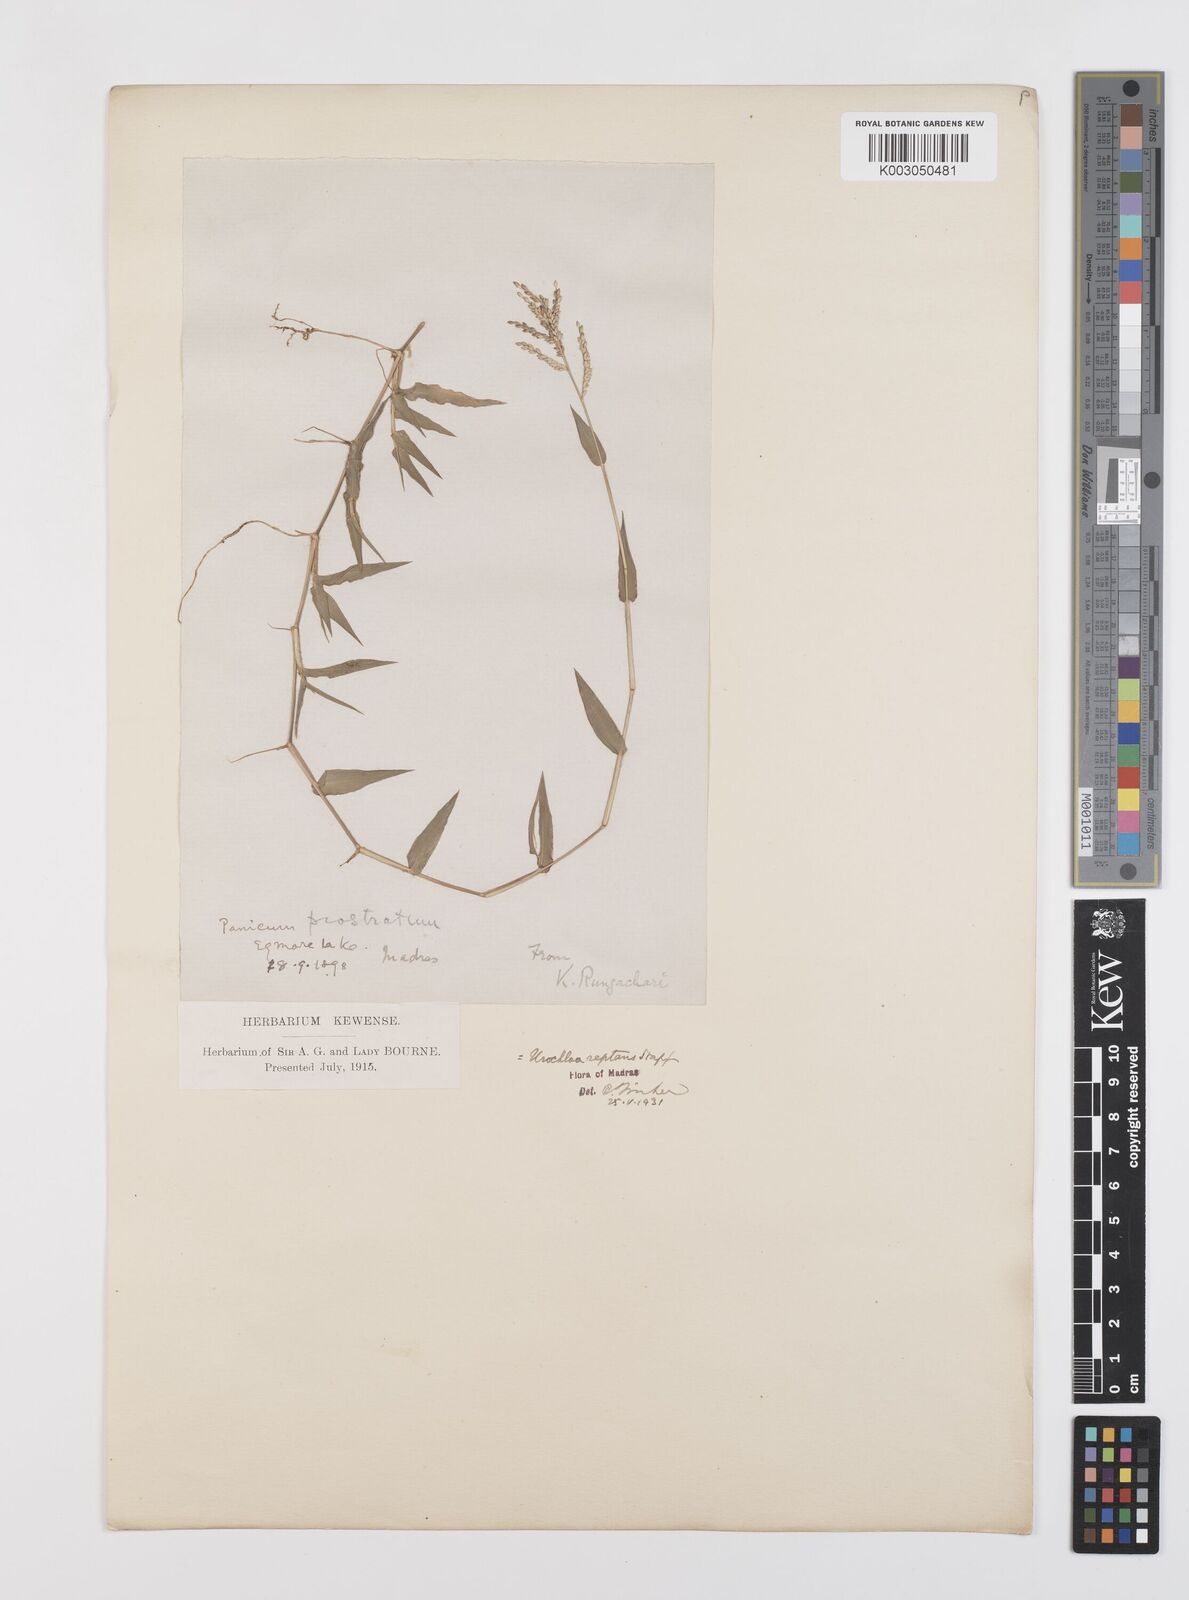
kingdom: Plantae
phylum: Tracheophyta
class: Liliopsida
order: Poales
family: Poaceae
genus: Urochloa
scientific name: Urochloa reptans
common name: Sprawling signalgrass
